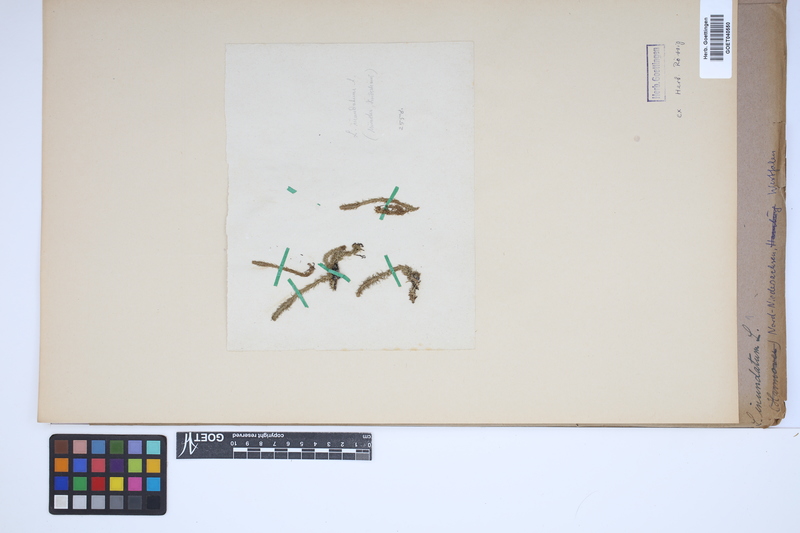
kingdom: Plantae
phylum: Tracheophyta
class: Lycopodiopsida
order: Lycopodiales
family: Lycopodiaceae
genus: Lycopodiella
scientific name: Lycopodiella inundata
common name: Marsh clubmoss
